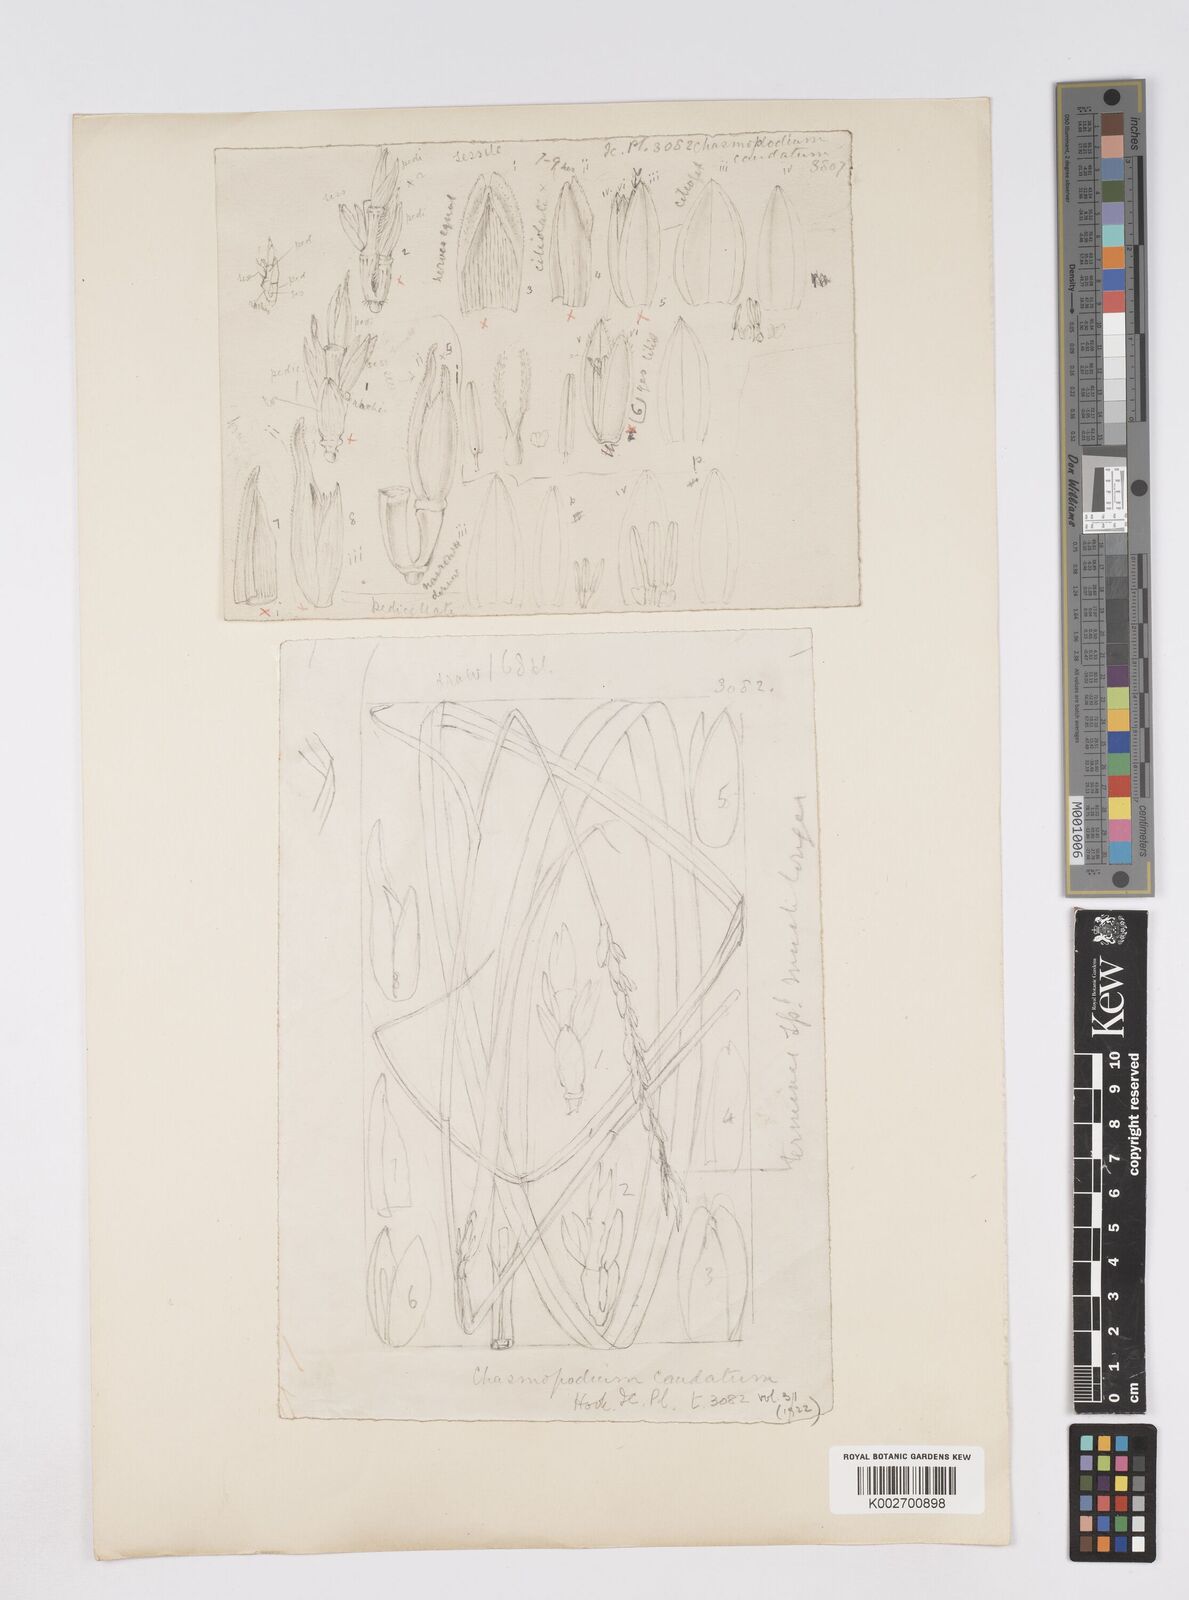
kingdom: Plantae
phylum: Tracheophyta
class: Liliopsida
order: Poales
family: Poaceae
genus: Chasmopodium
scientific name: Chasmopodium caudatum
